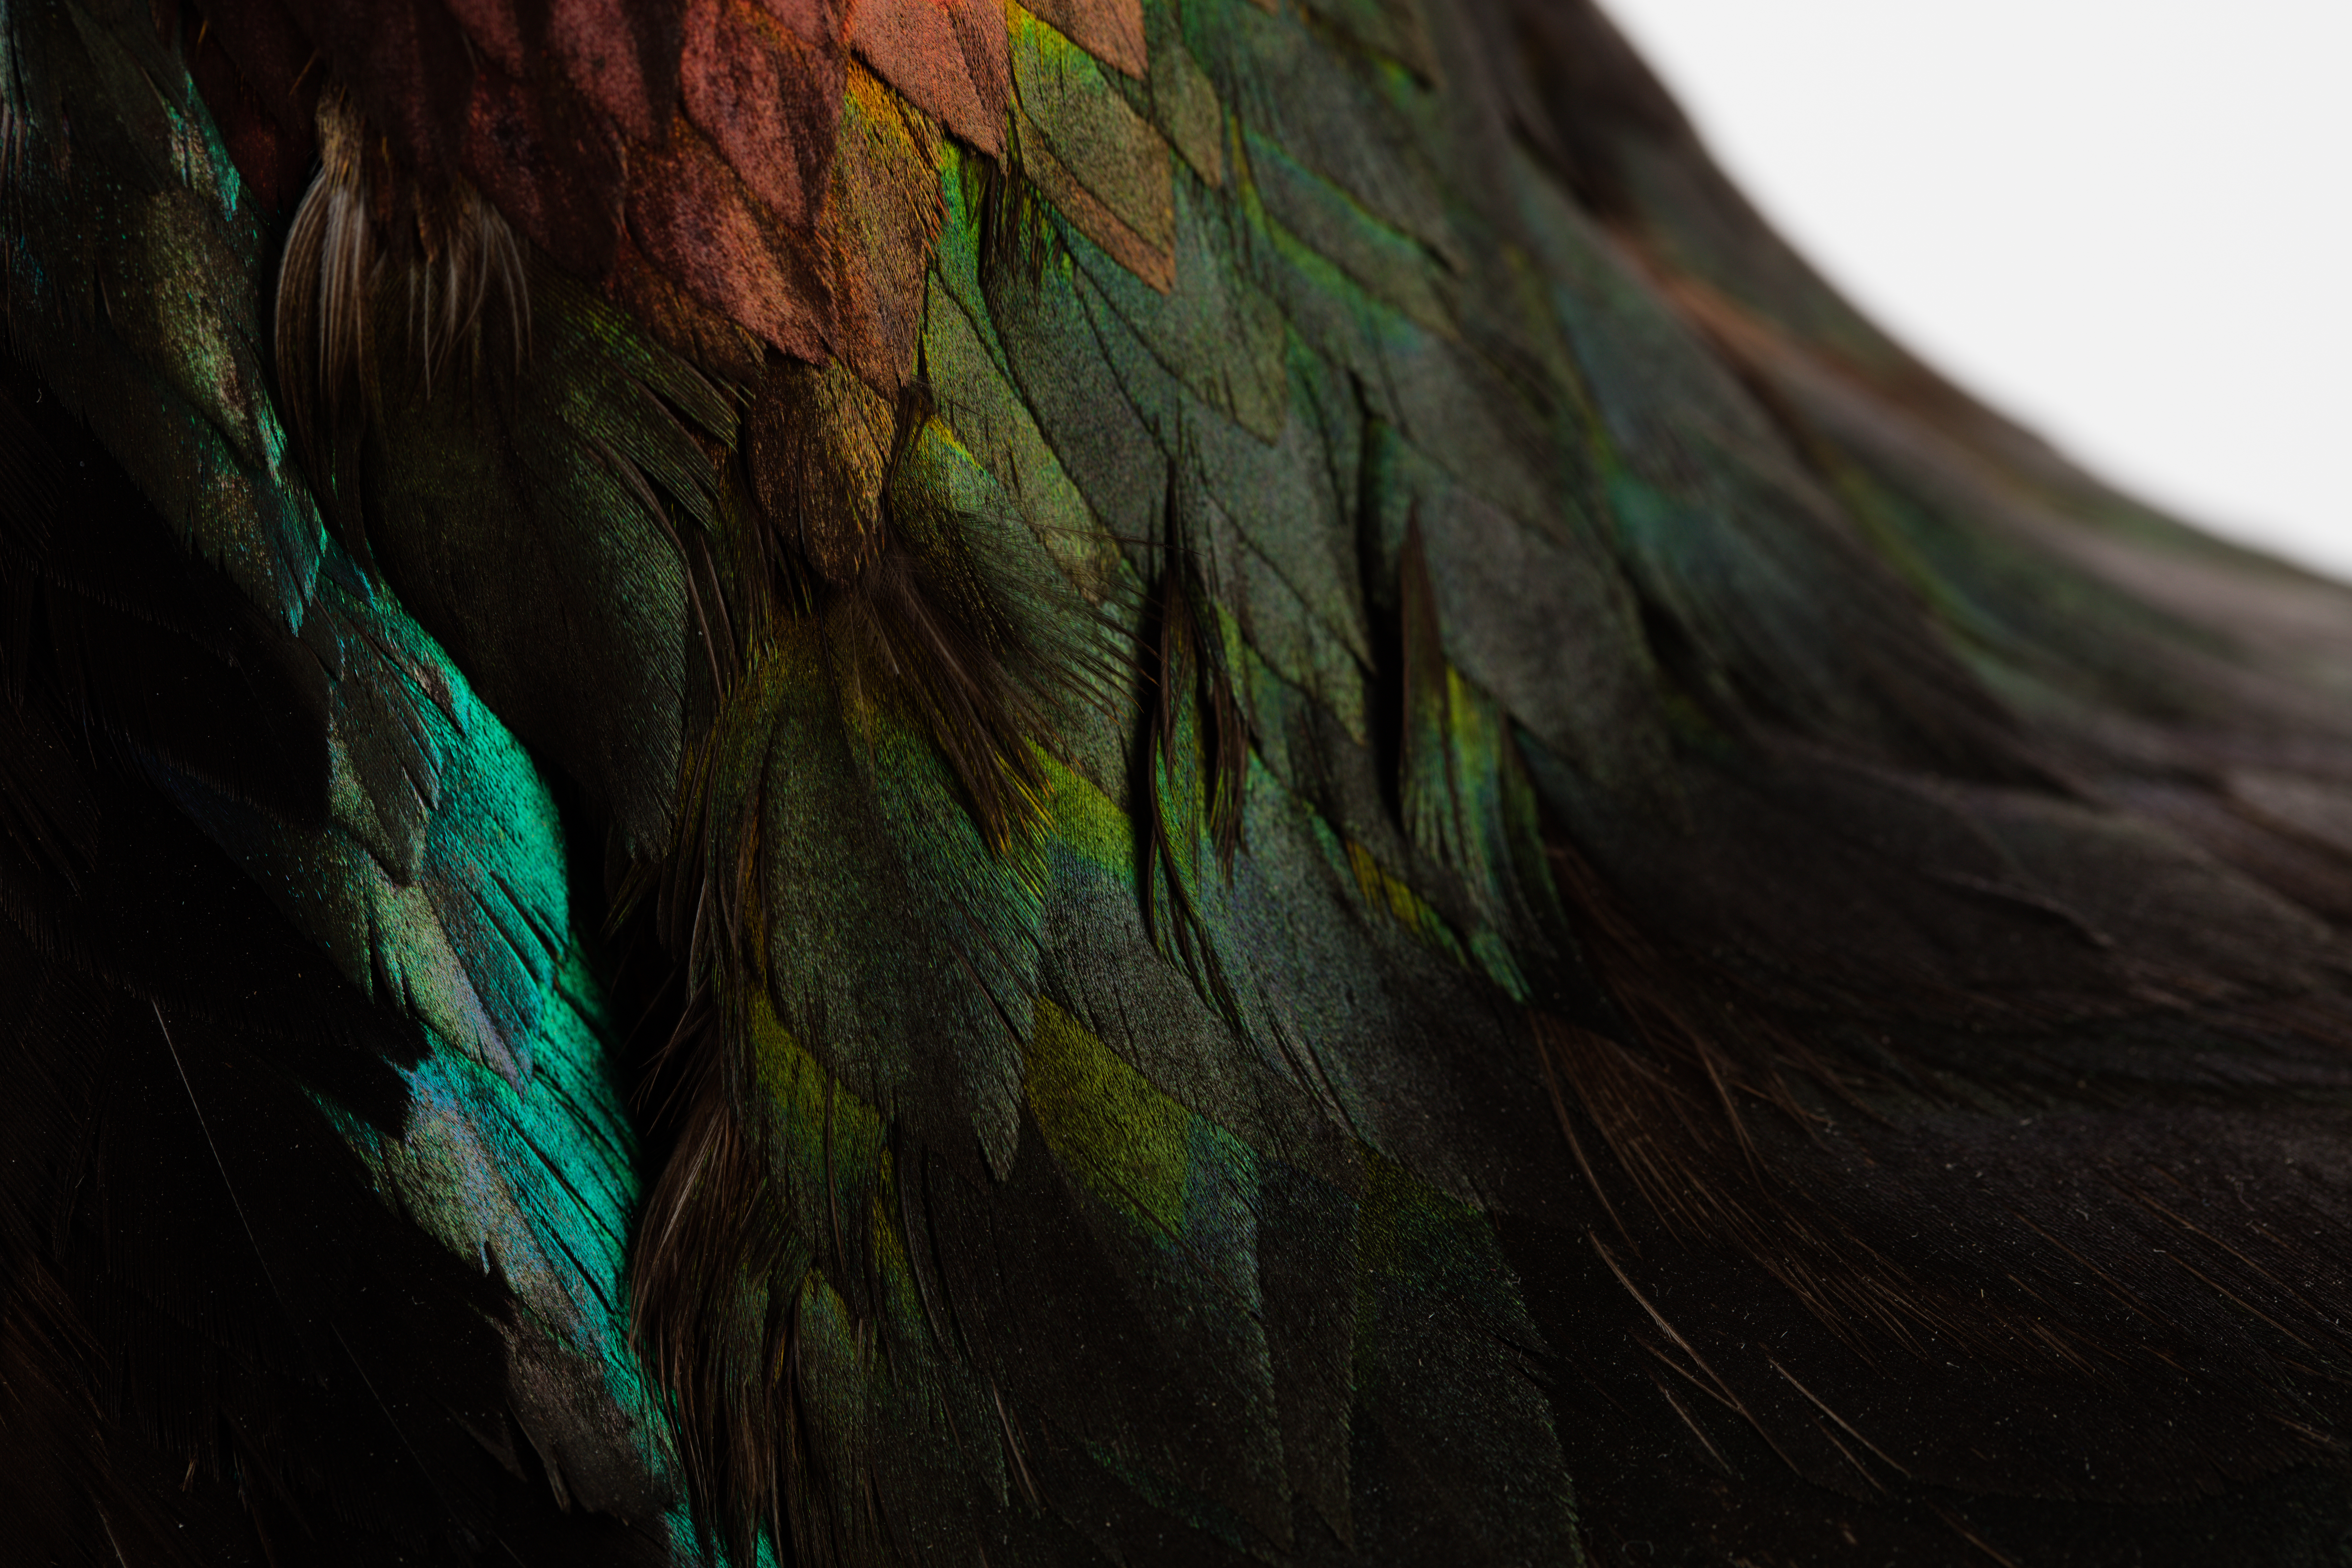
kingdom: Animalia
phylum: Chordata
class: Aves
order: Galliformes
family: Phasianidae
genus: Lophophorus
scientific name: Lophophorus impejanus
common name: Himalayan monal
